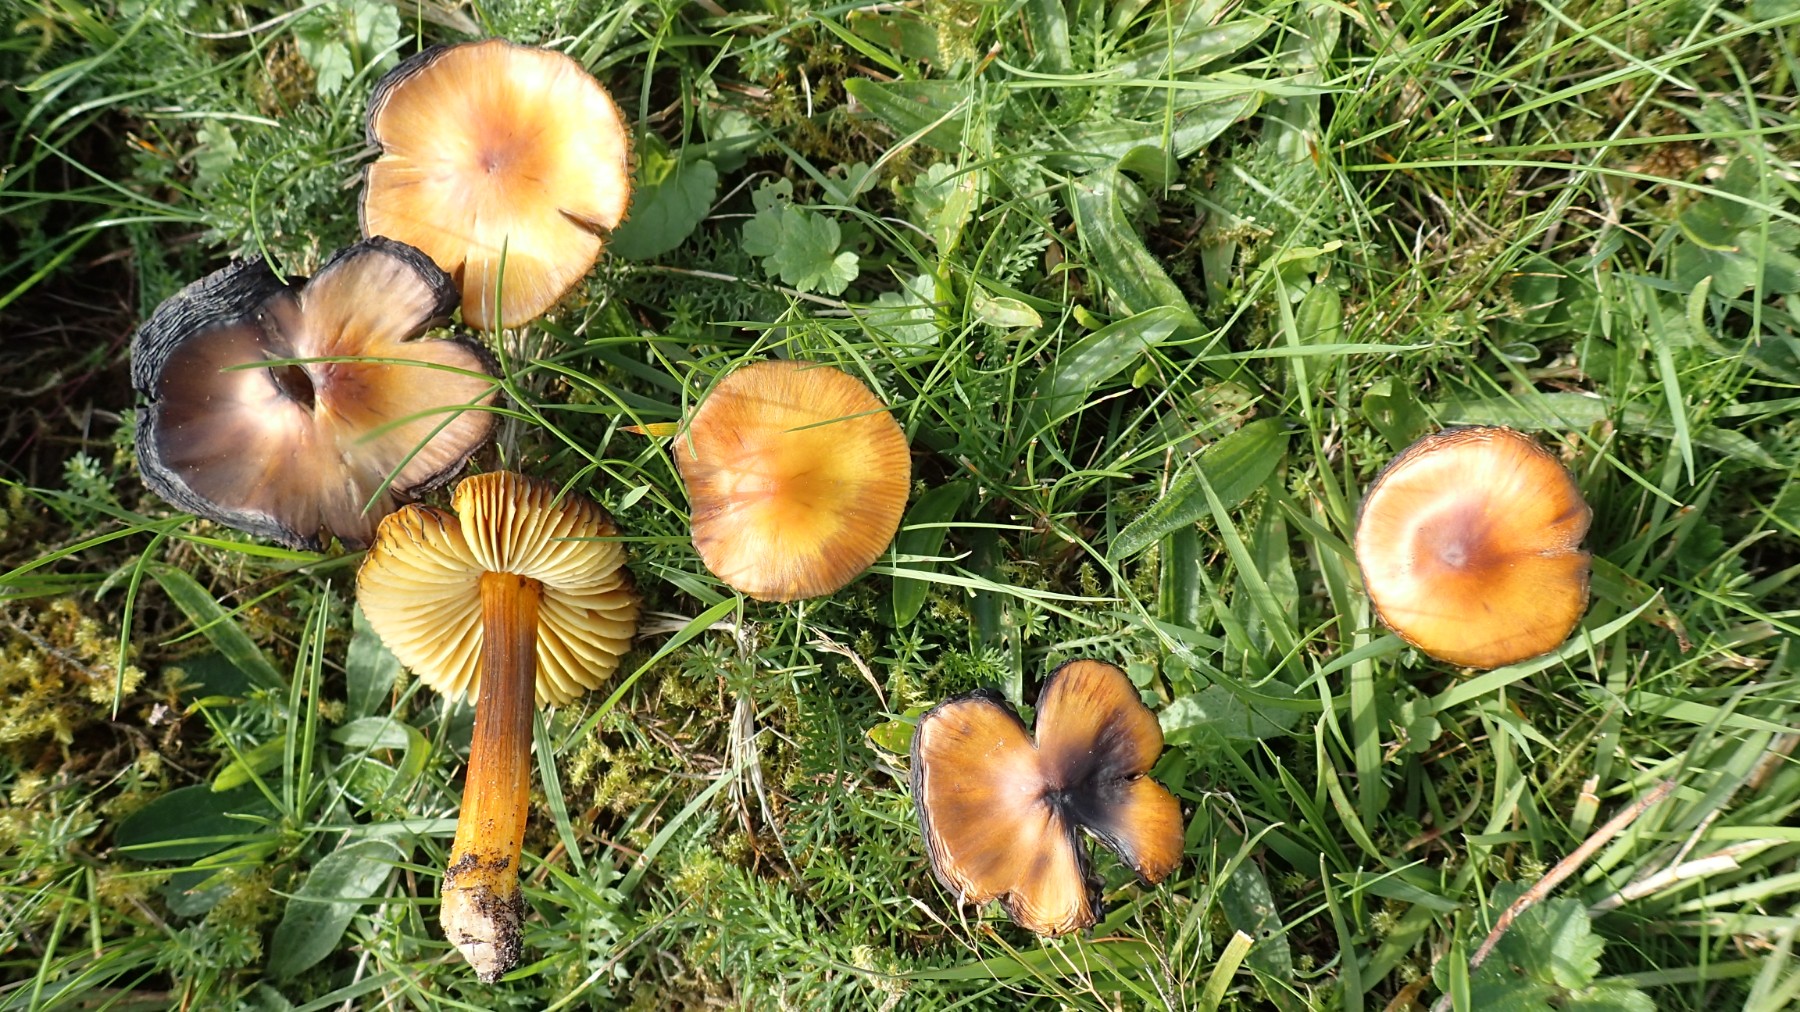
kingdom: Fungi
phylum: Basidiomycota
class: Agaricomycetes
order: Agaricales
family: Hygrophoraceae
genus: Hygrocybe
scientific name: Hygrocybe conica
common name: kegle-vokshat
